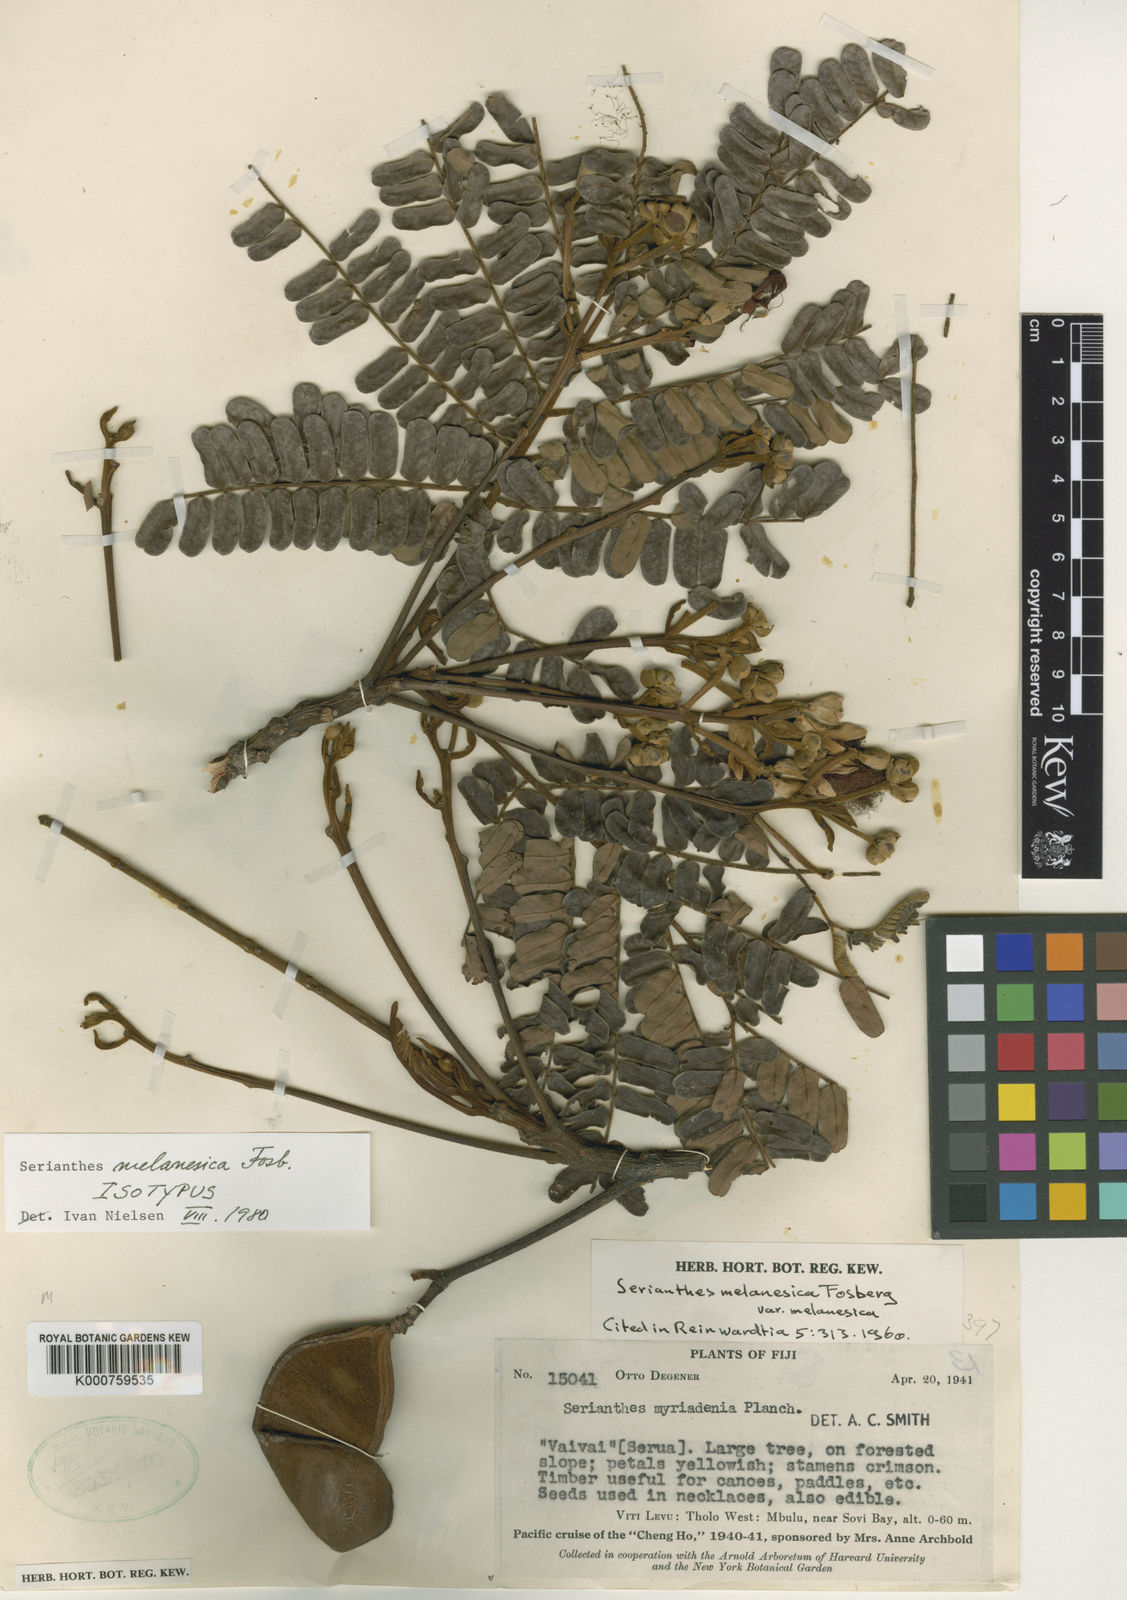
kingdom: Plantae
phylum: Tracheophyta
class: Magnoliopsida
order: Fabales
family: Fabaceae
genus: Serianthes
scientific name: Serianthes melanesica
